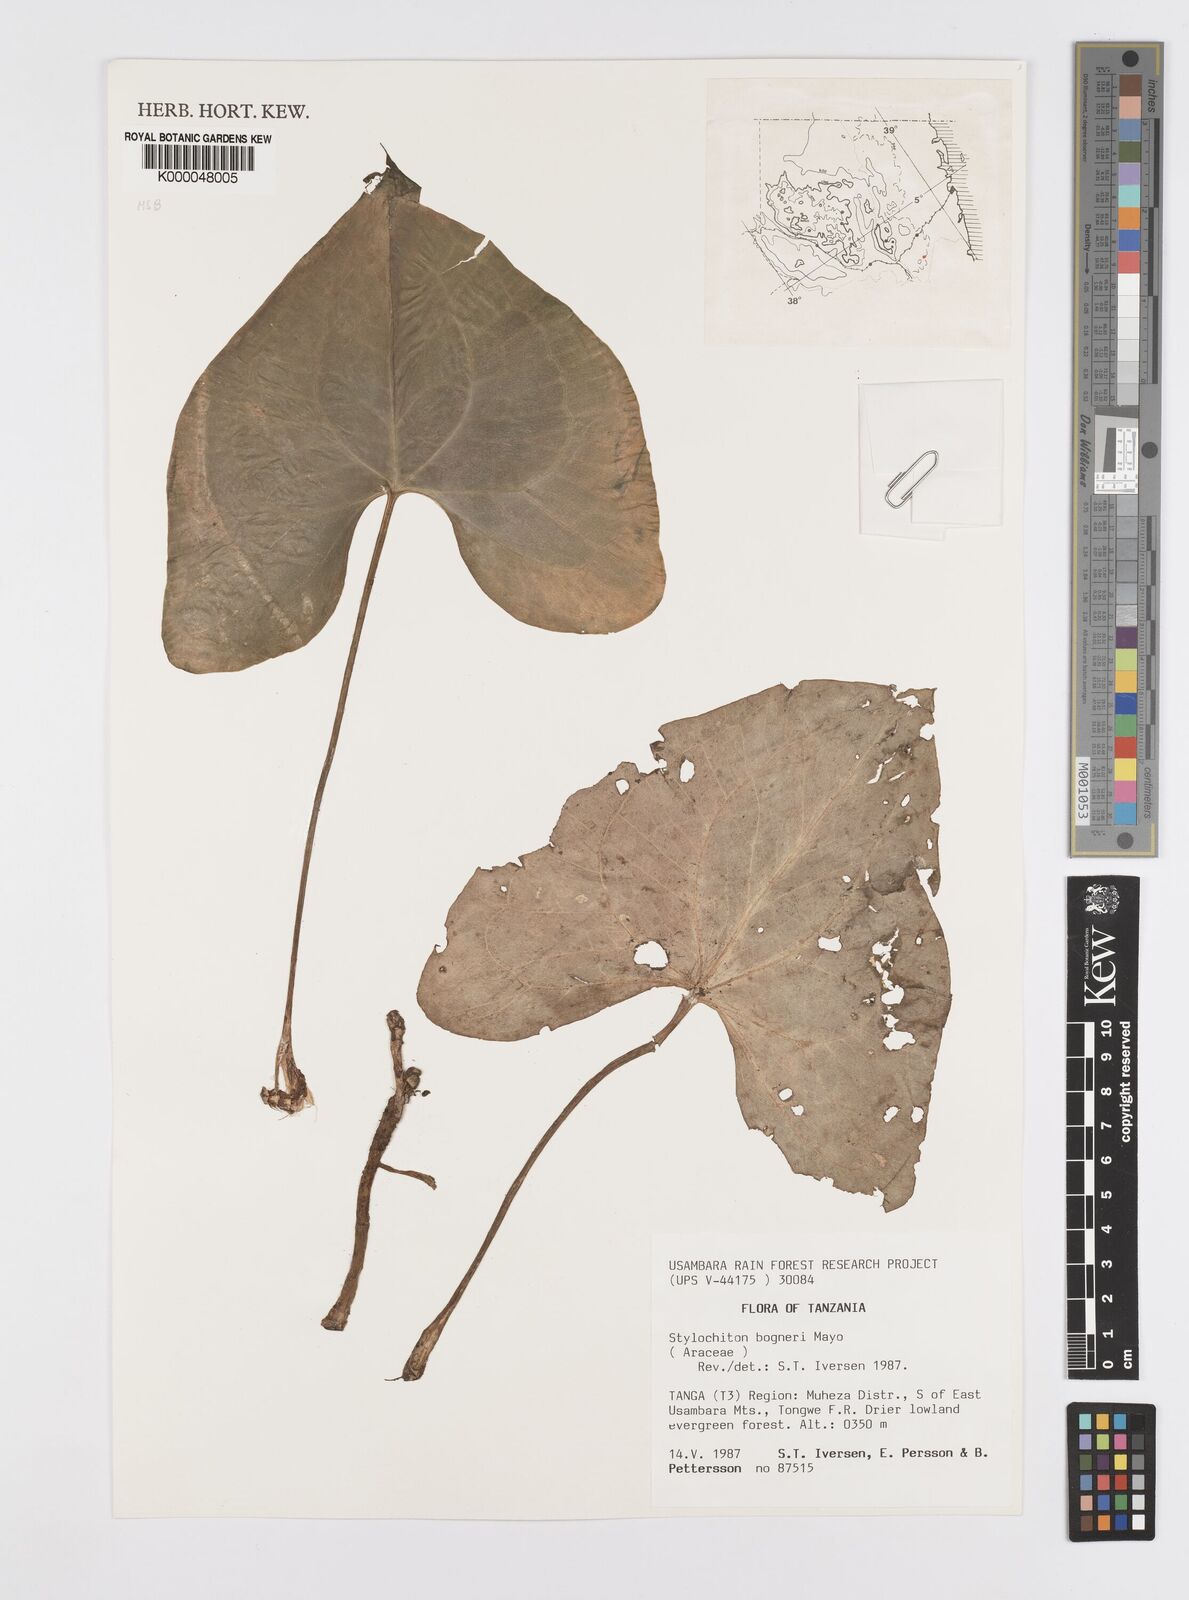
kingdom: Plantae
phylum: Tracheophyta
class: Liliopsida
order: Alismatales
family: Araceae
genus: Stylochaeton
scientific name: Stylochaeton bogneri
